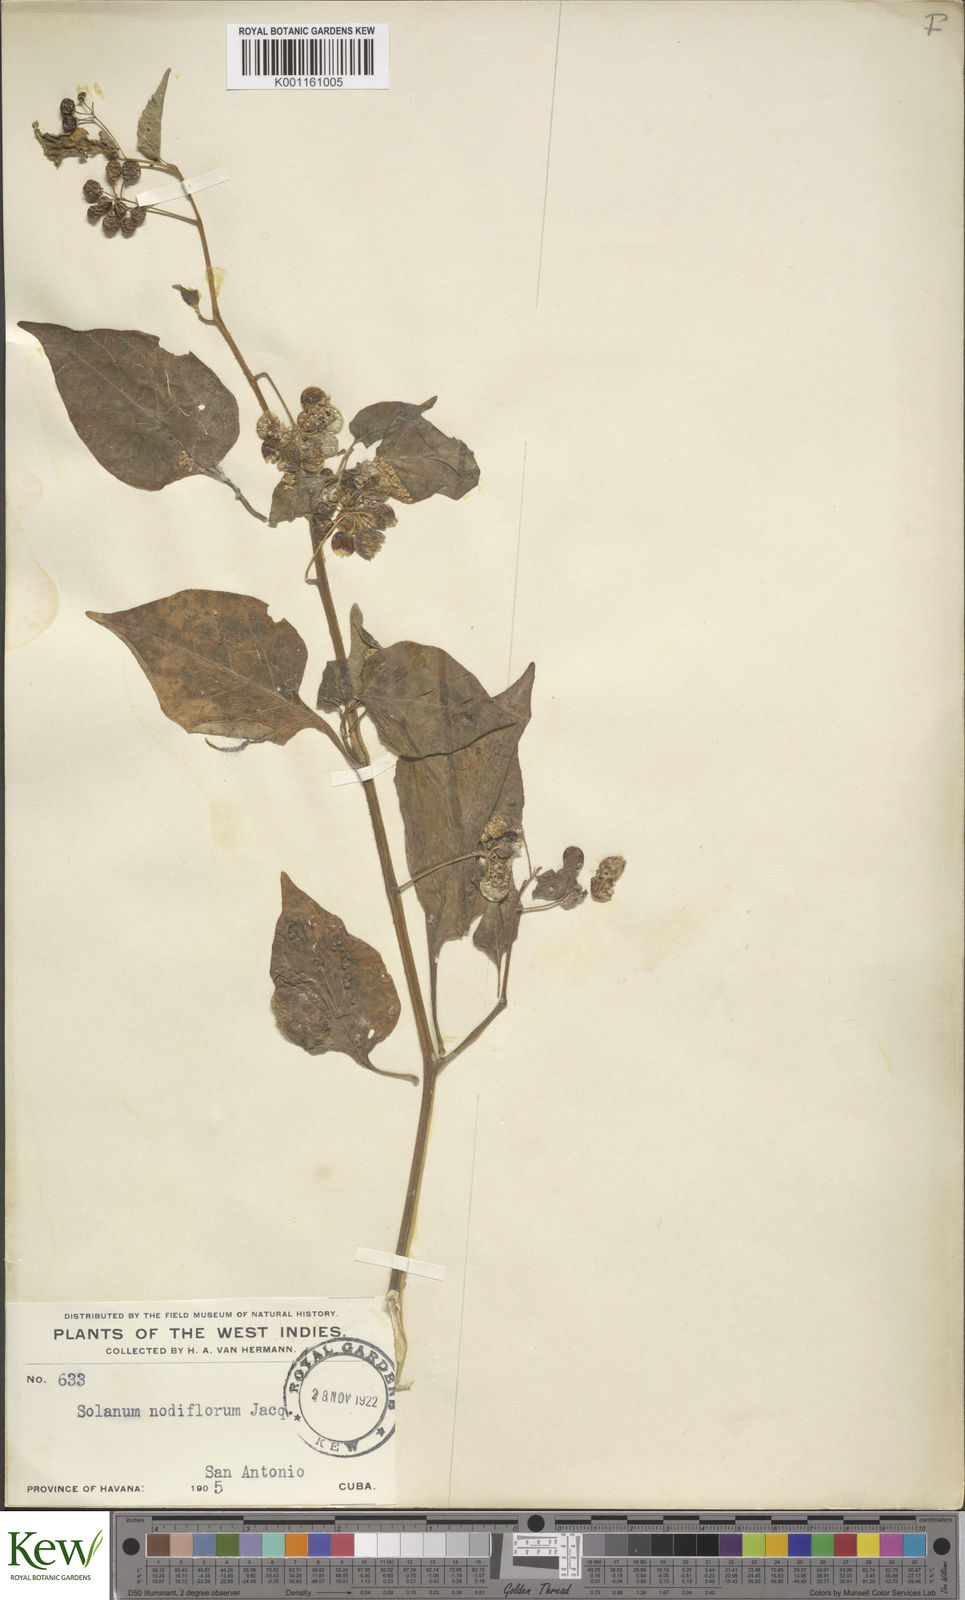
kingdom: Plantae
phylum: Tracheophyta
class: Magnoliopsida
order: Solanales
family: Solanaceae
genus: Solanum
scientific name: Solanum americanum
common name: American black nightshade
